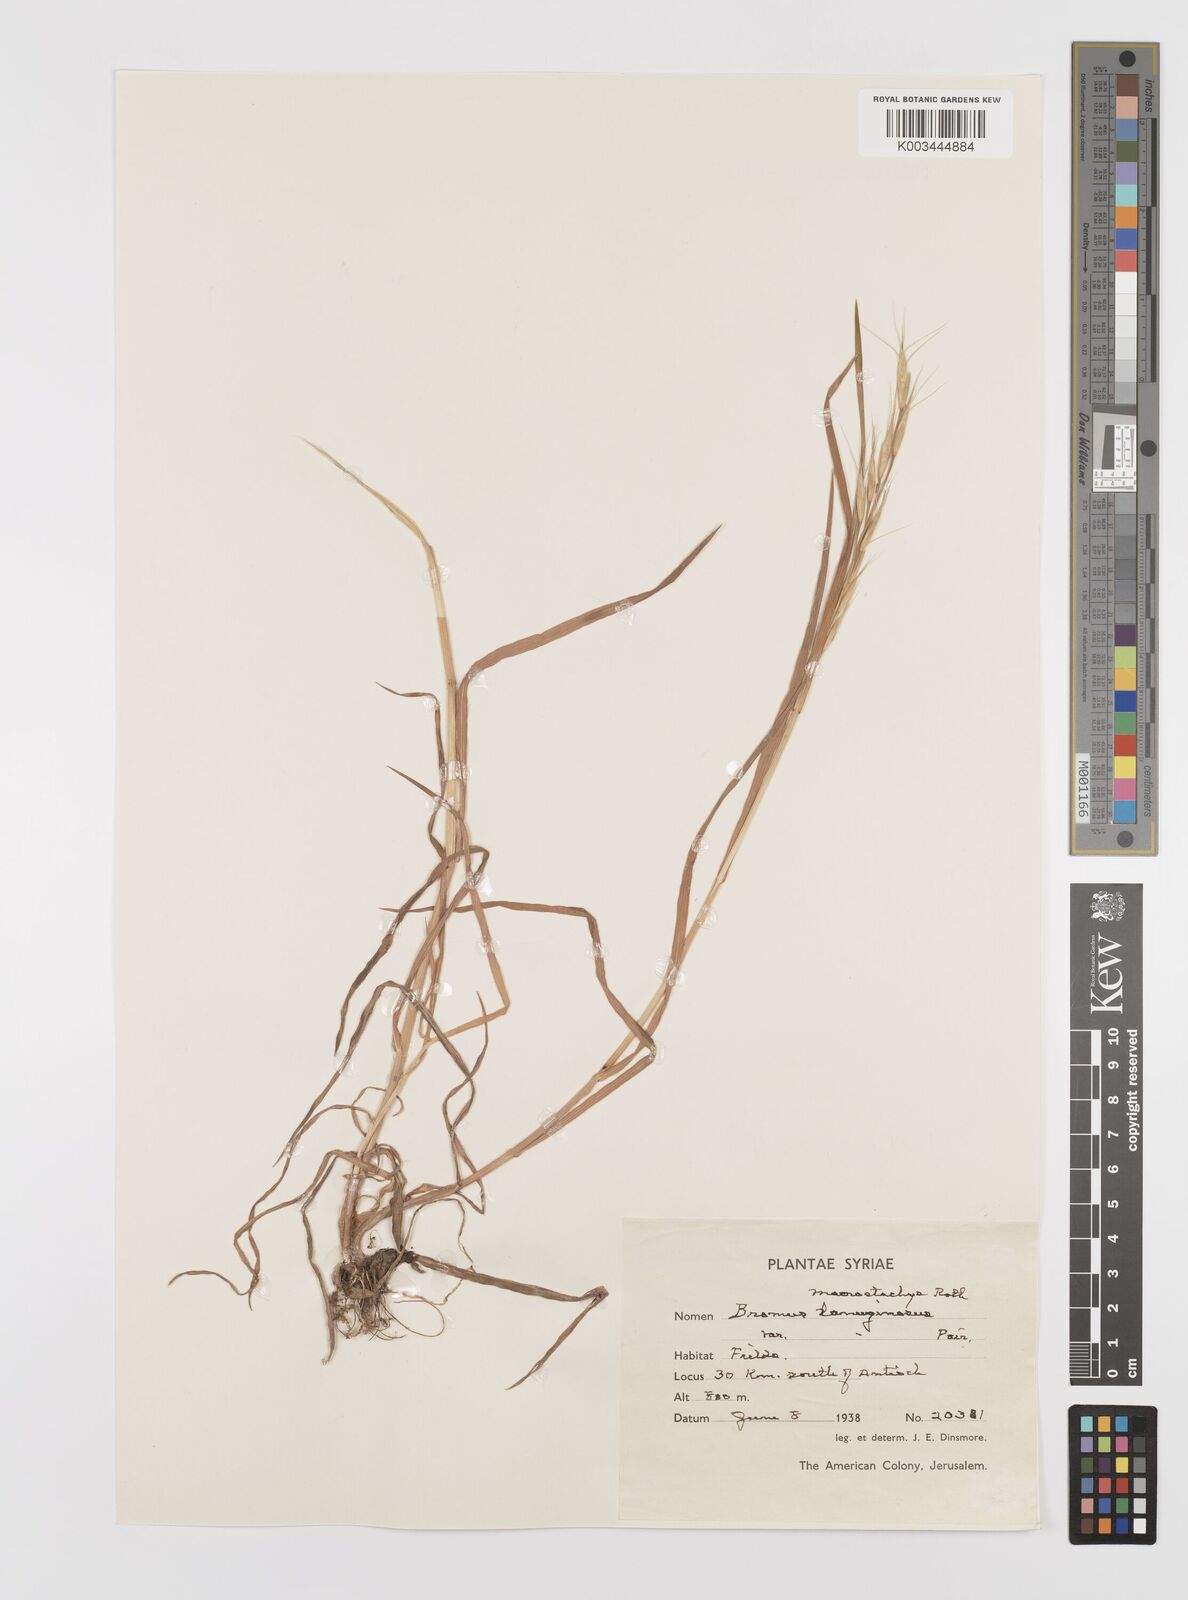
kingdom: Plantae
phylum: Tracheophyta
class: Liliopsida
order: Poales
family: Poaceae
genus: Bromus
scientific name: Bromus lanceolatus
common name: Mediterranean brome
